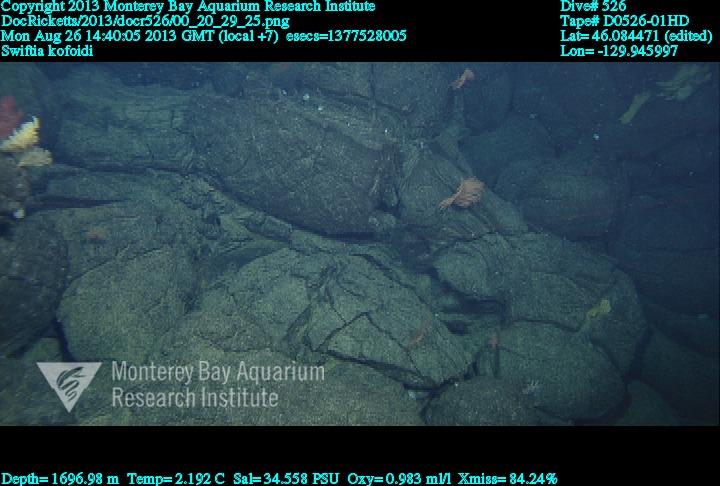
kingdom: Animalia
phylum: Cnidaria
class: Anthozoa
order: Malacalcyonacea
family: Gorgoniidae
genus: Callistephanus
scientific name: Callistephanus kofoidi
